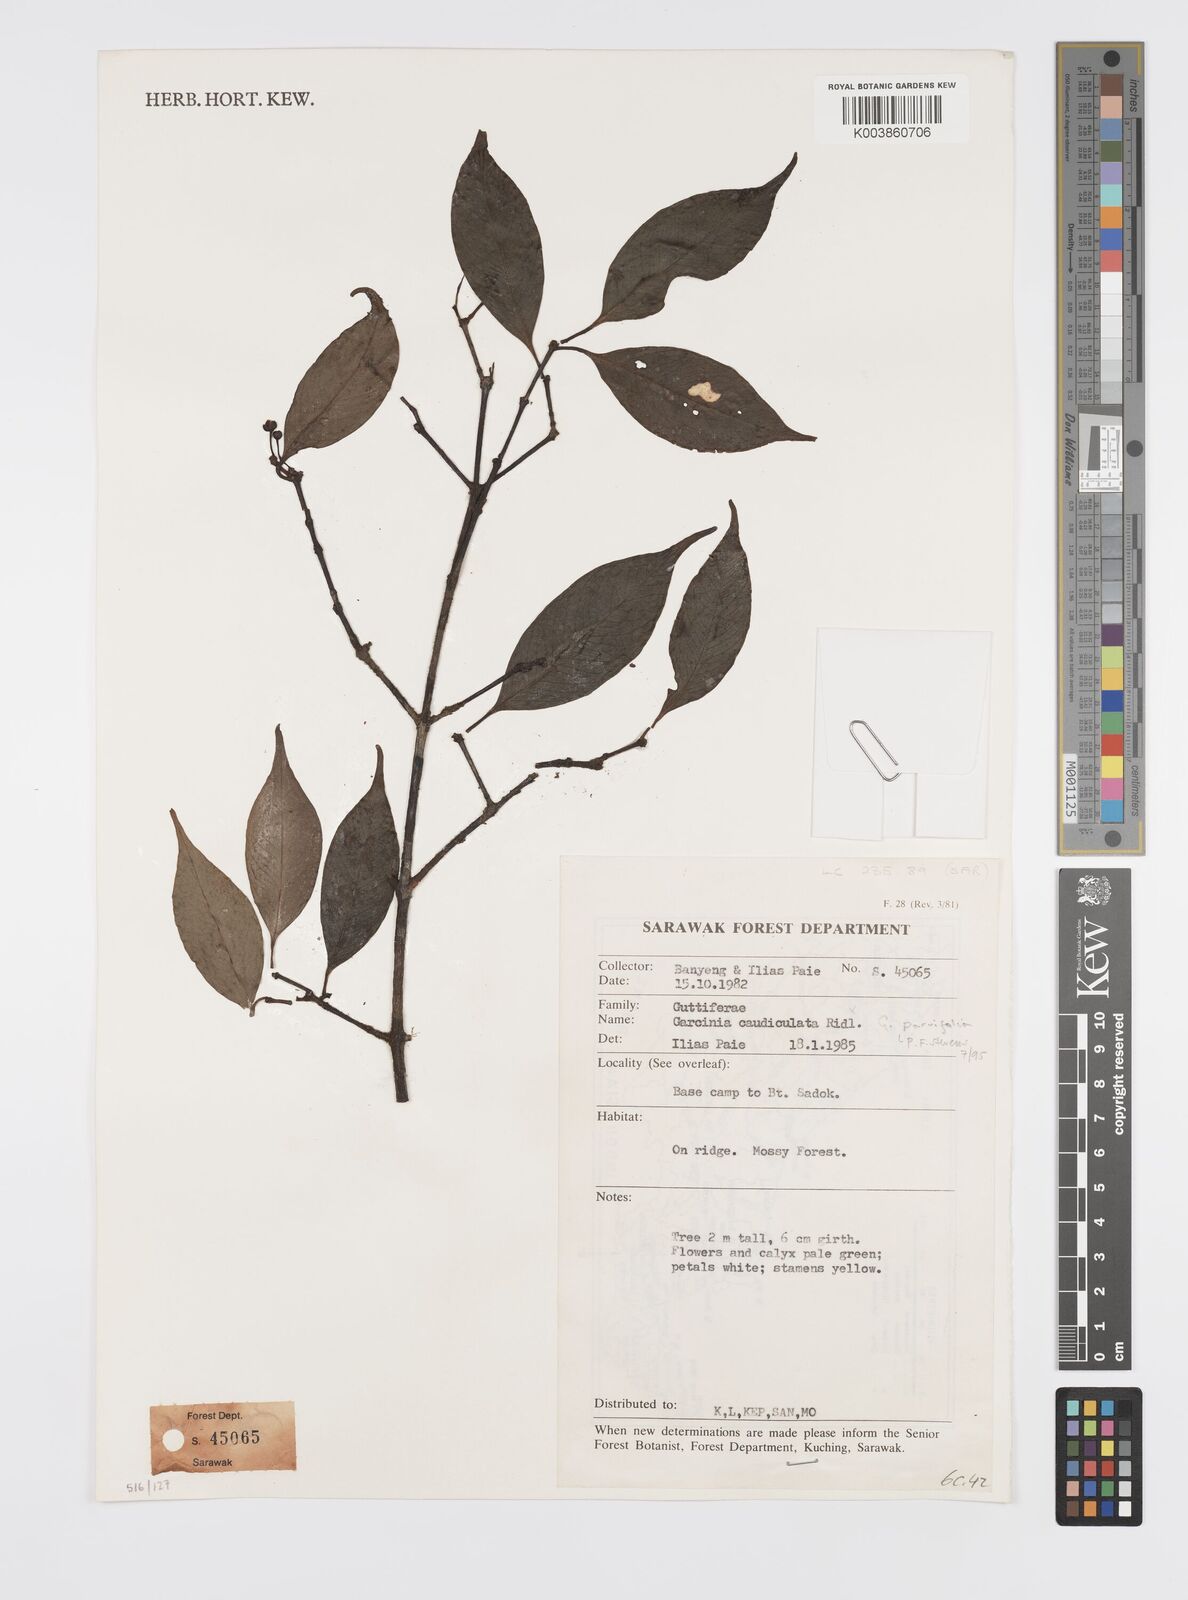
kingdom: Plantae
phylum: Tracheophyta
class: Magnoliopsida
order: Malpighiales
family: Clusiaceae
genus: Garcinia
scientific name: Garcinia parvifolia
